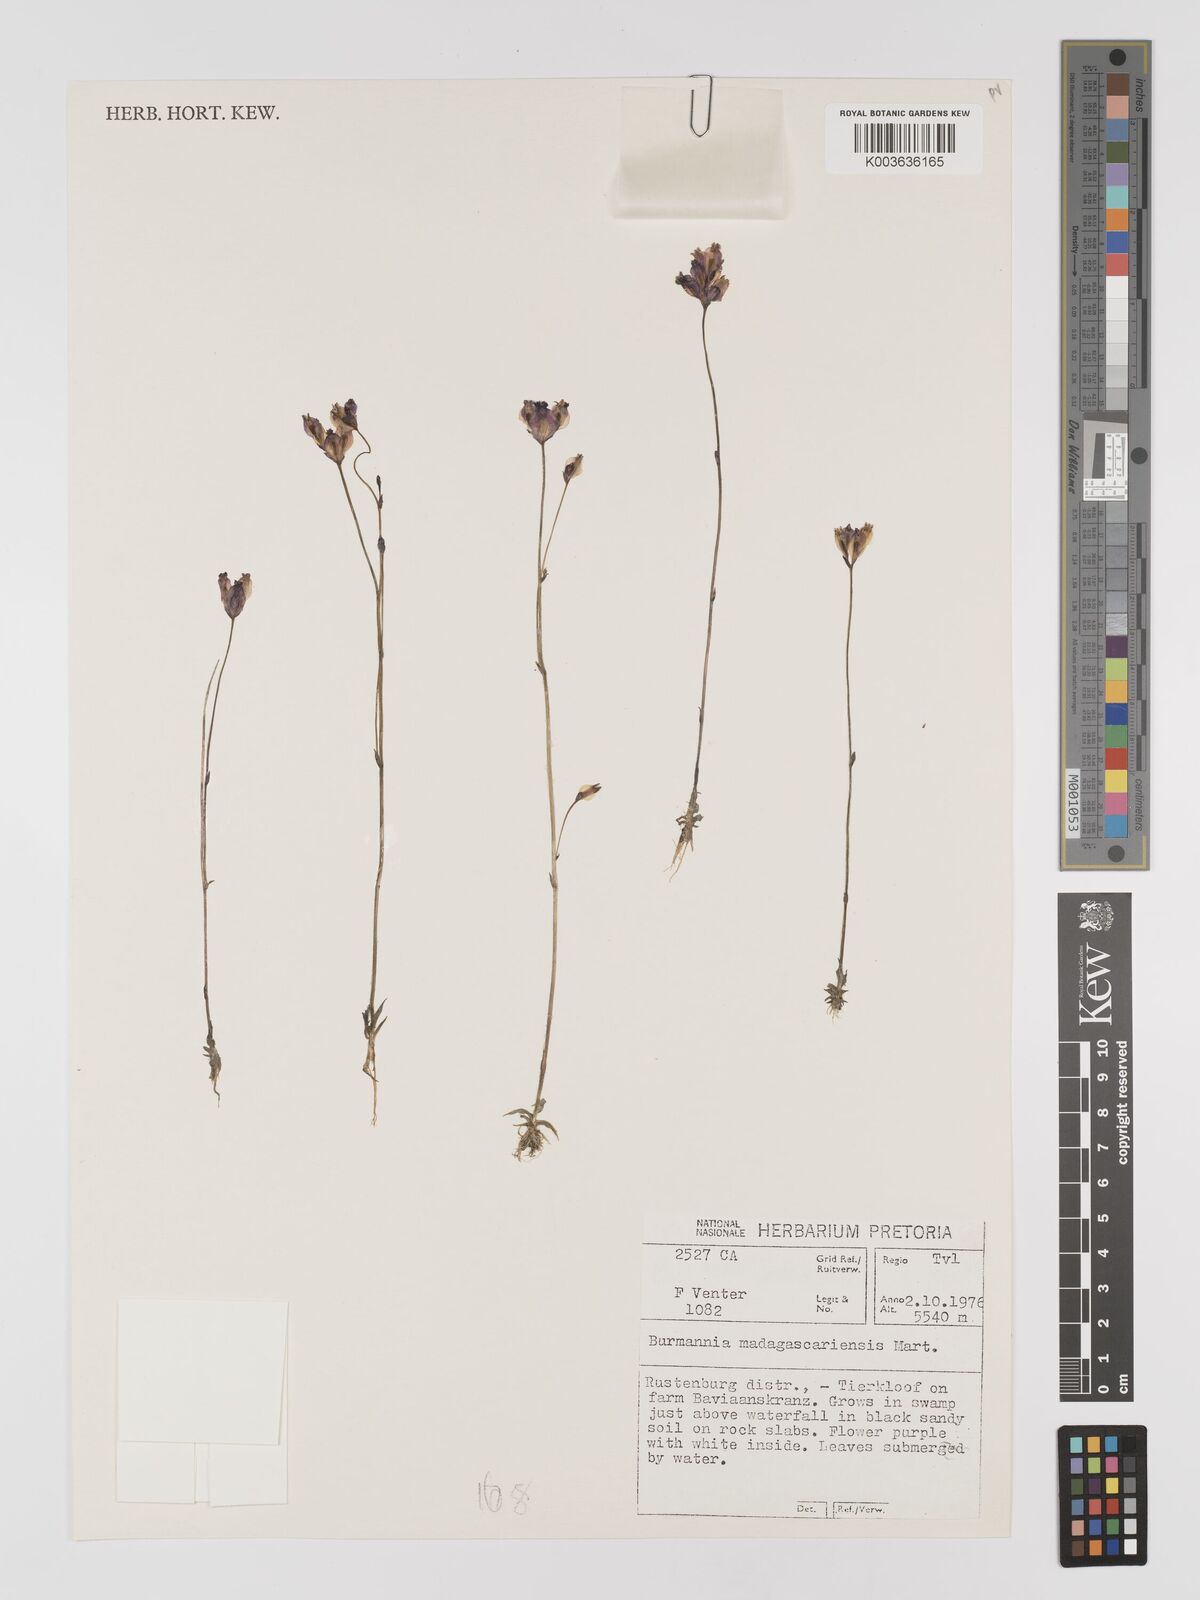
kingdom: Plantae
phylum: Tracheophyta
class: Liliopsida
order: Dioscoreales
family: Burmanniaceae
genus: Burmannia
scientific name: Burmannia madagascariensis
